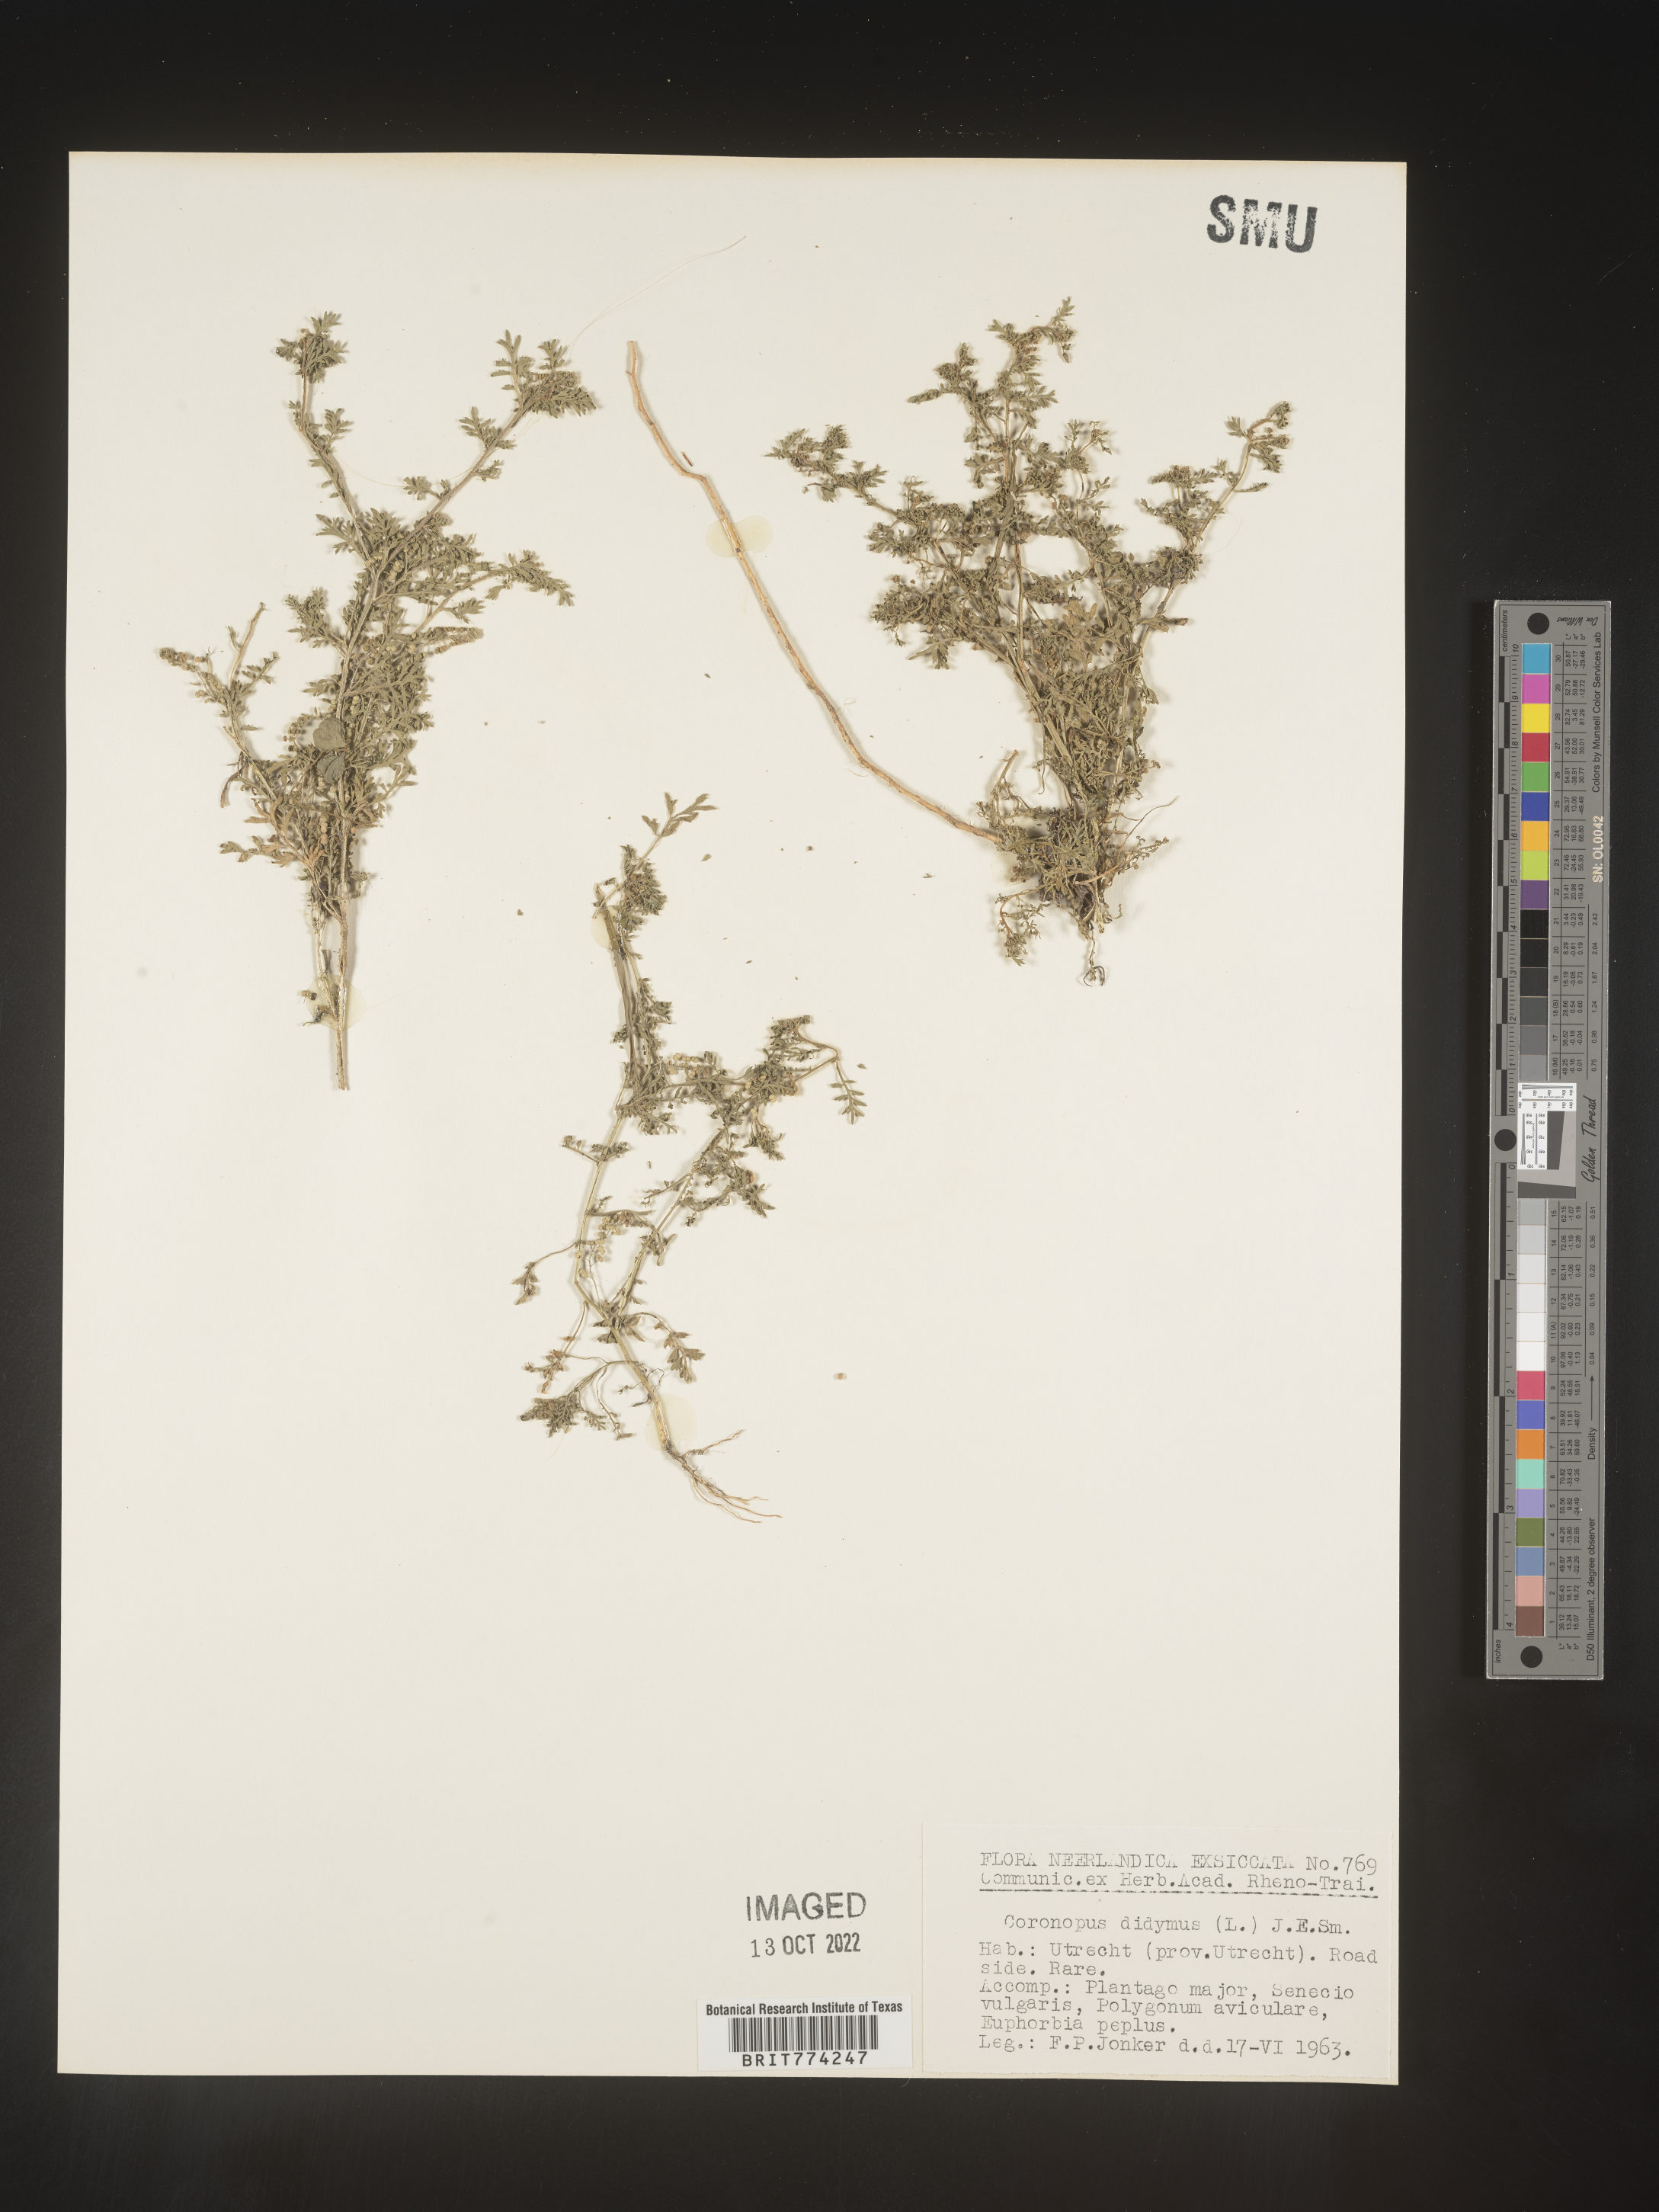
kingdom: Plantae
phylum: Tracheophyta
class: Magnoliopsida
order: Brassicales
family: Brassicaceae
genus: Coronopus
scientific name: Coronopus
